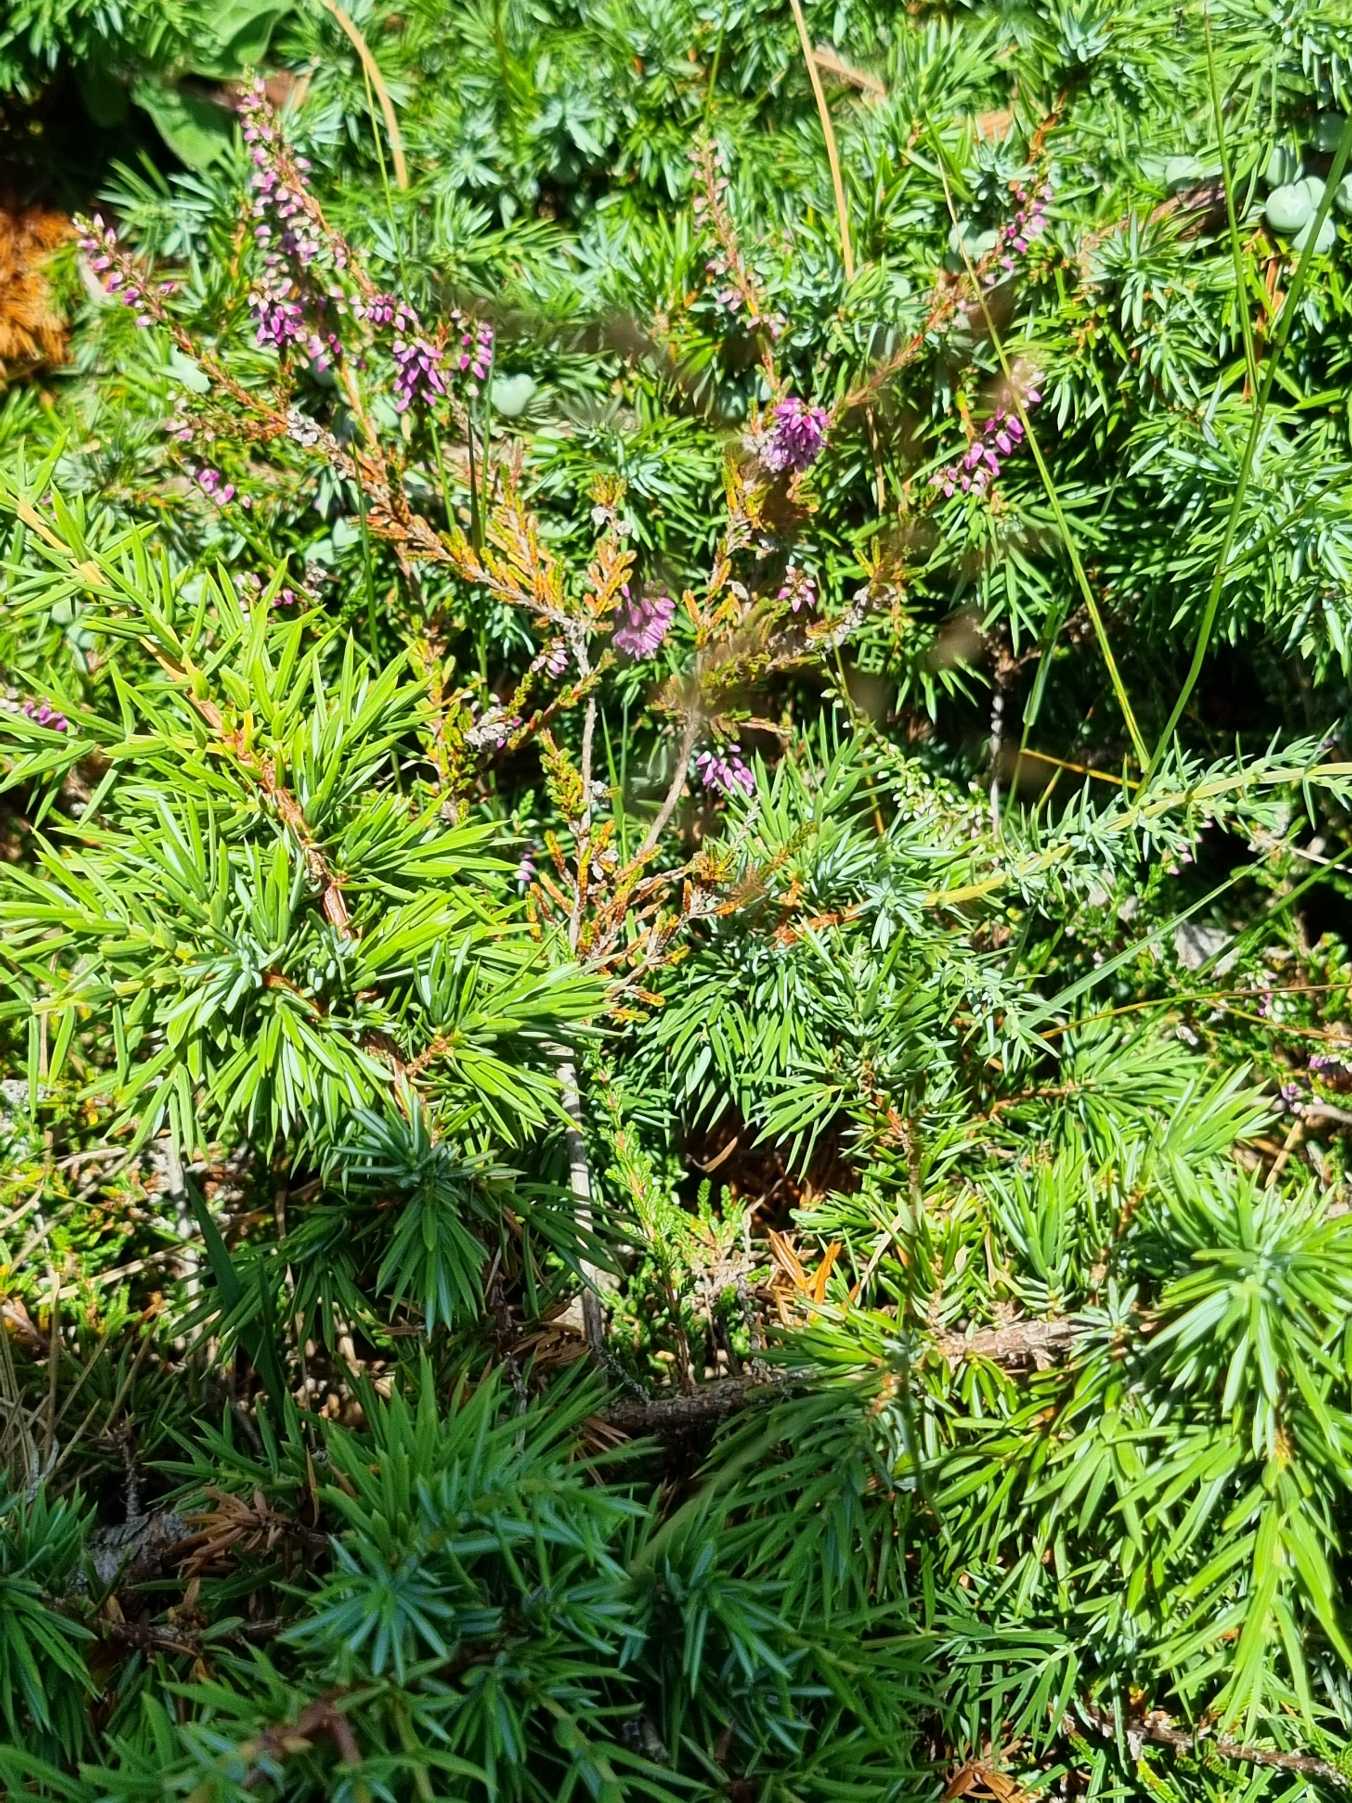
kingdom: Plantae
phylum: Tracheophyta
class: Magnoliopsida
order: Ericales
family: Ericaceae
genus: Calluna
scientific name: Calluna vulgaris
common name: Hedelyng
